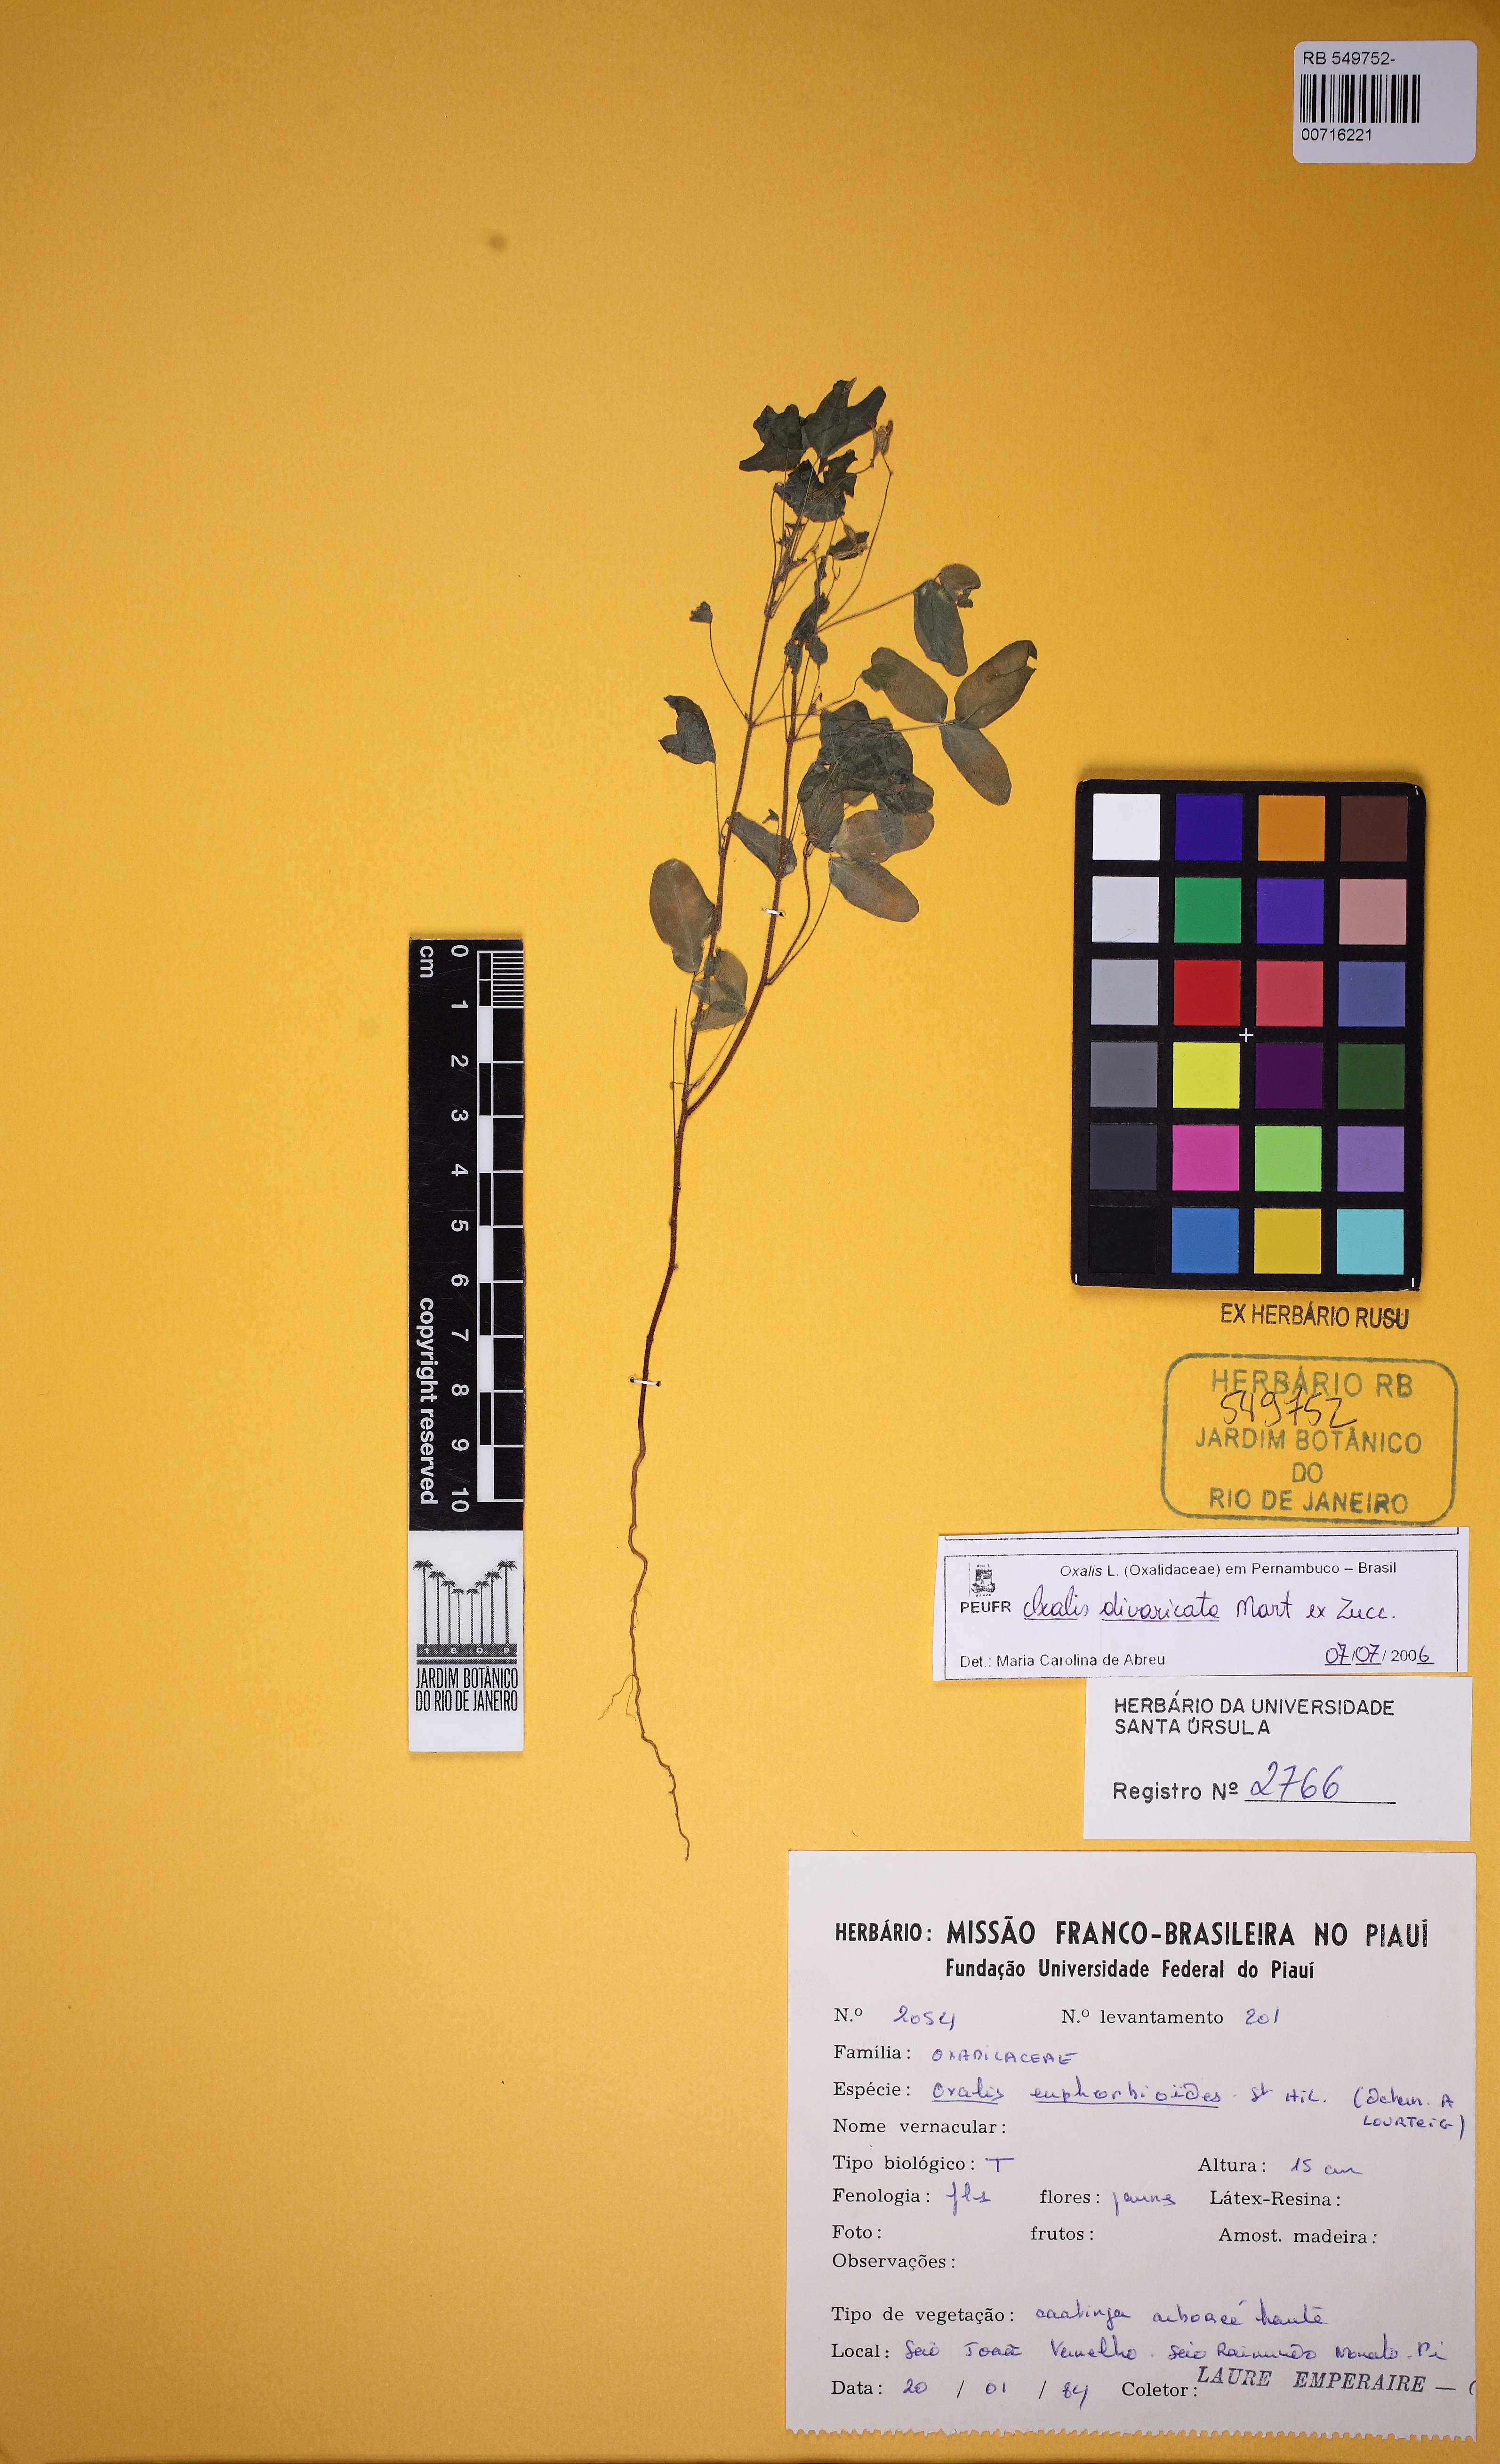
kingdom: Plantae
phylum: Tracheophyta
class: Magnoliopsida
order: Oxalidales
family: Oxalidaceae
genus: Oxalis
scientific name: Oxalis divaricata
